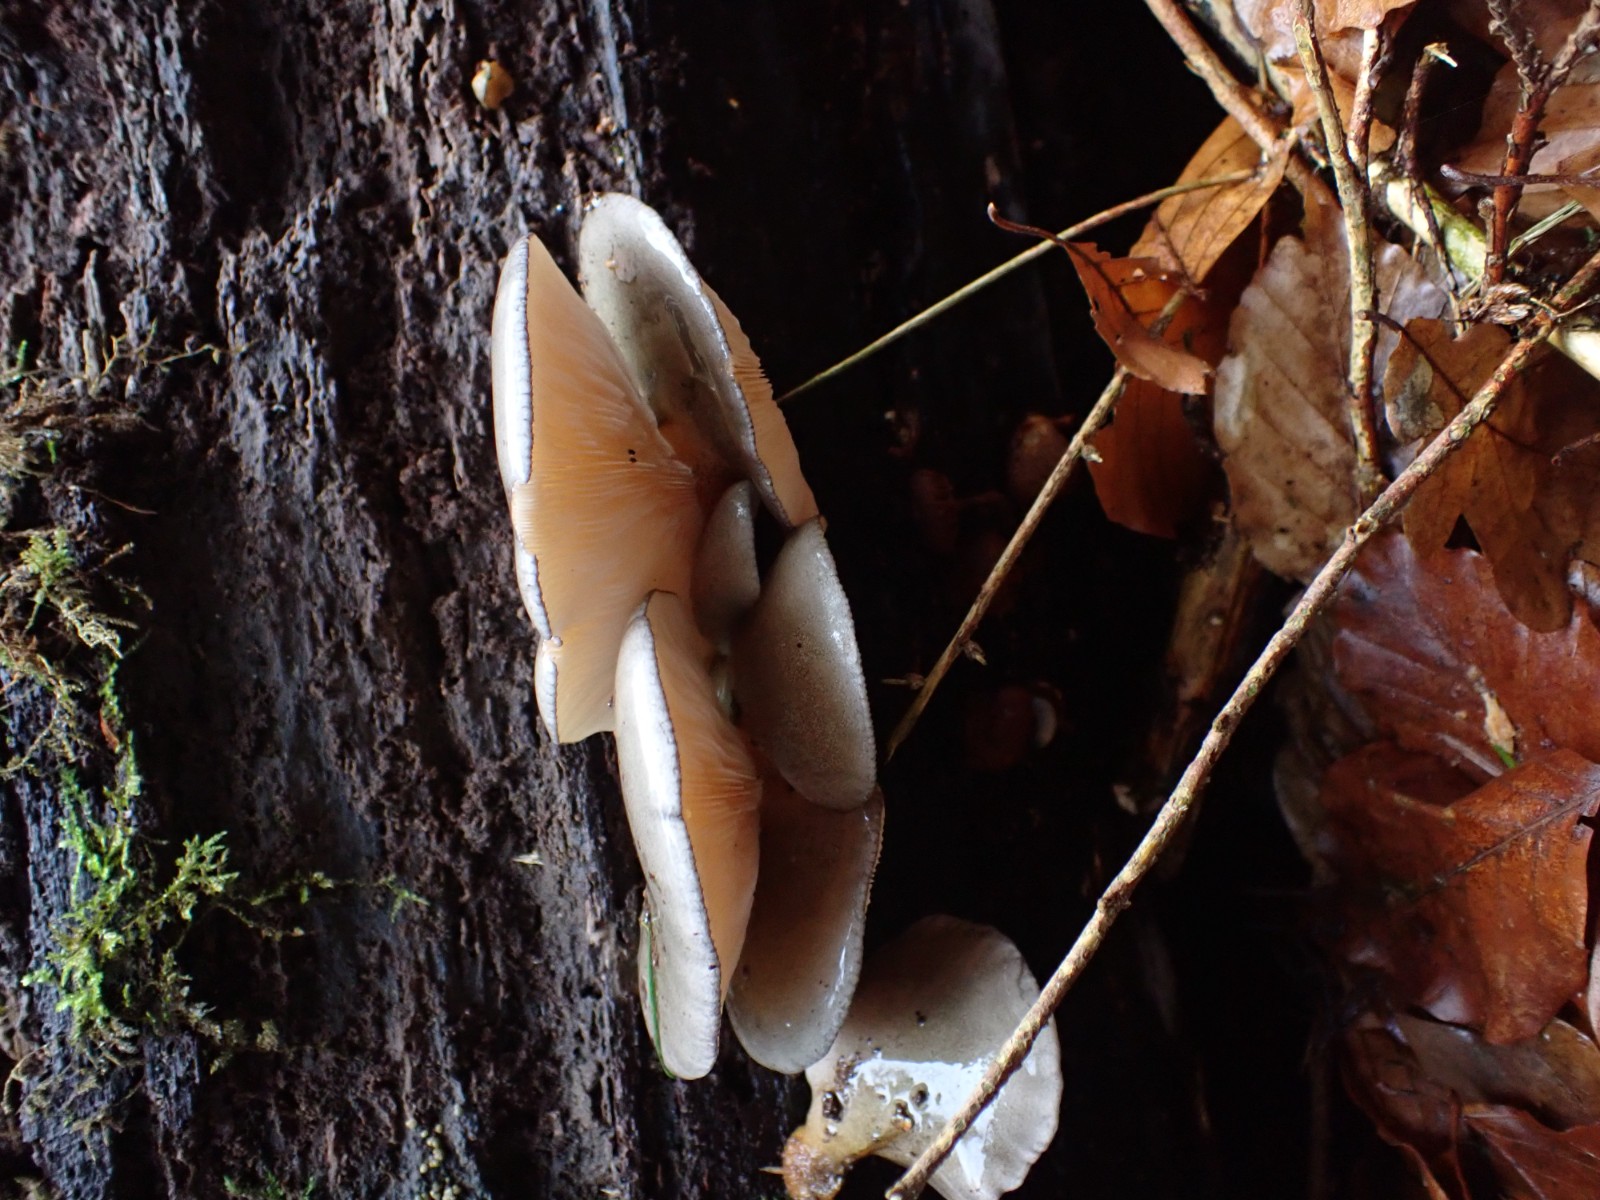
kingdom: Fungi
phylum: Basidiomycota
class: Agaricomycetes
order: Agaricales
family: Sarcomyxaceae
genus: Sarcomyxa
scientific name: Sarcomyxa serotina
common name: gummihat
